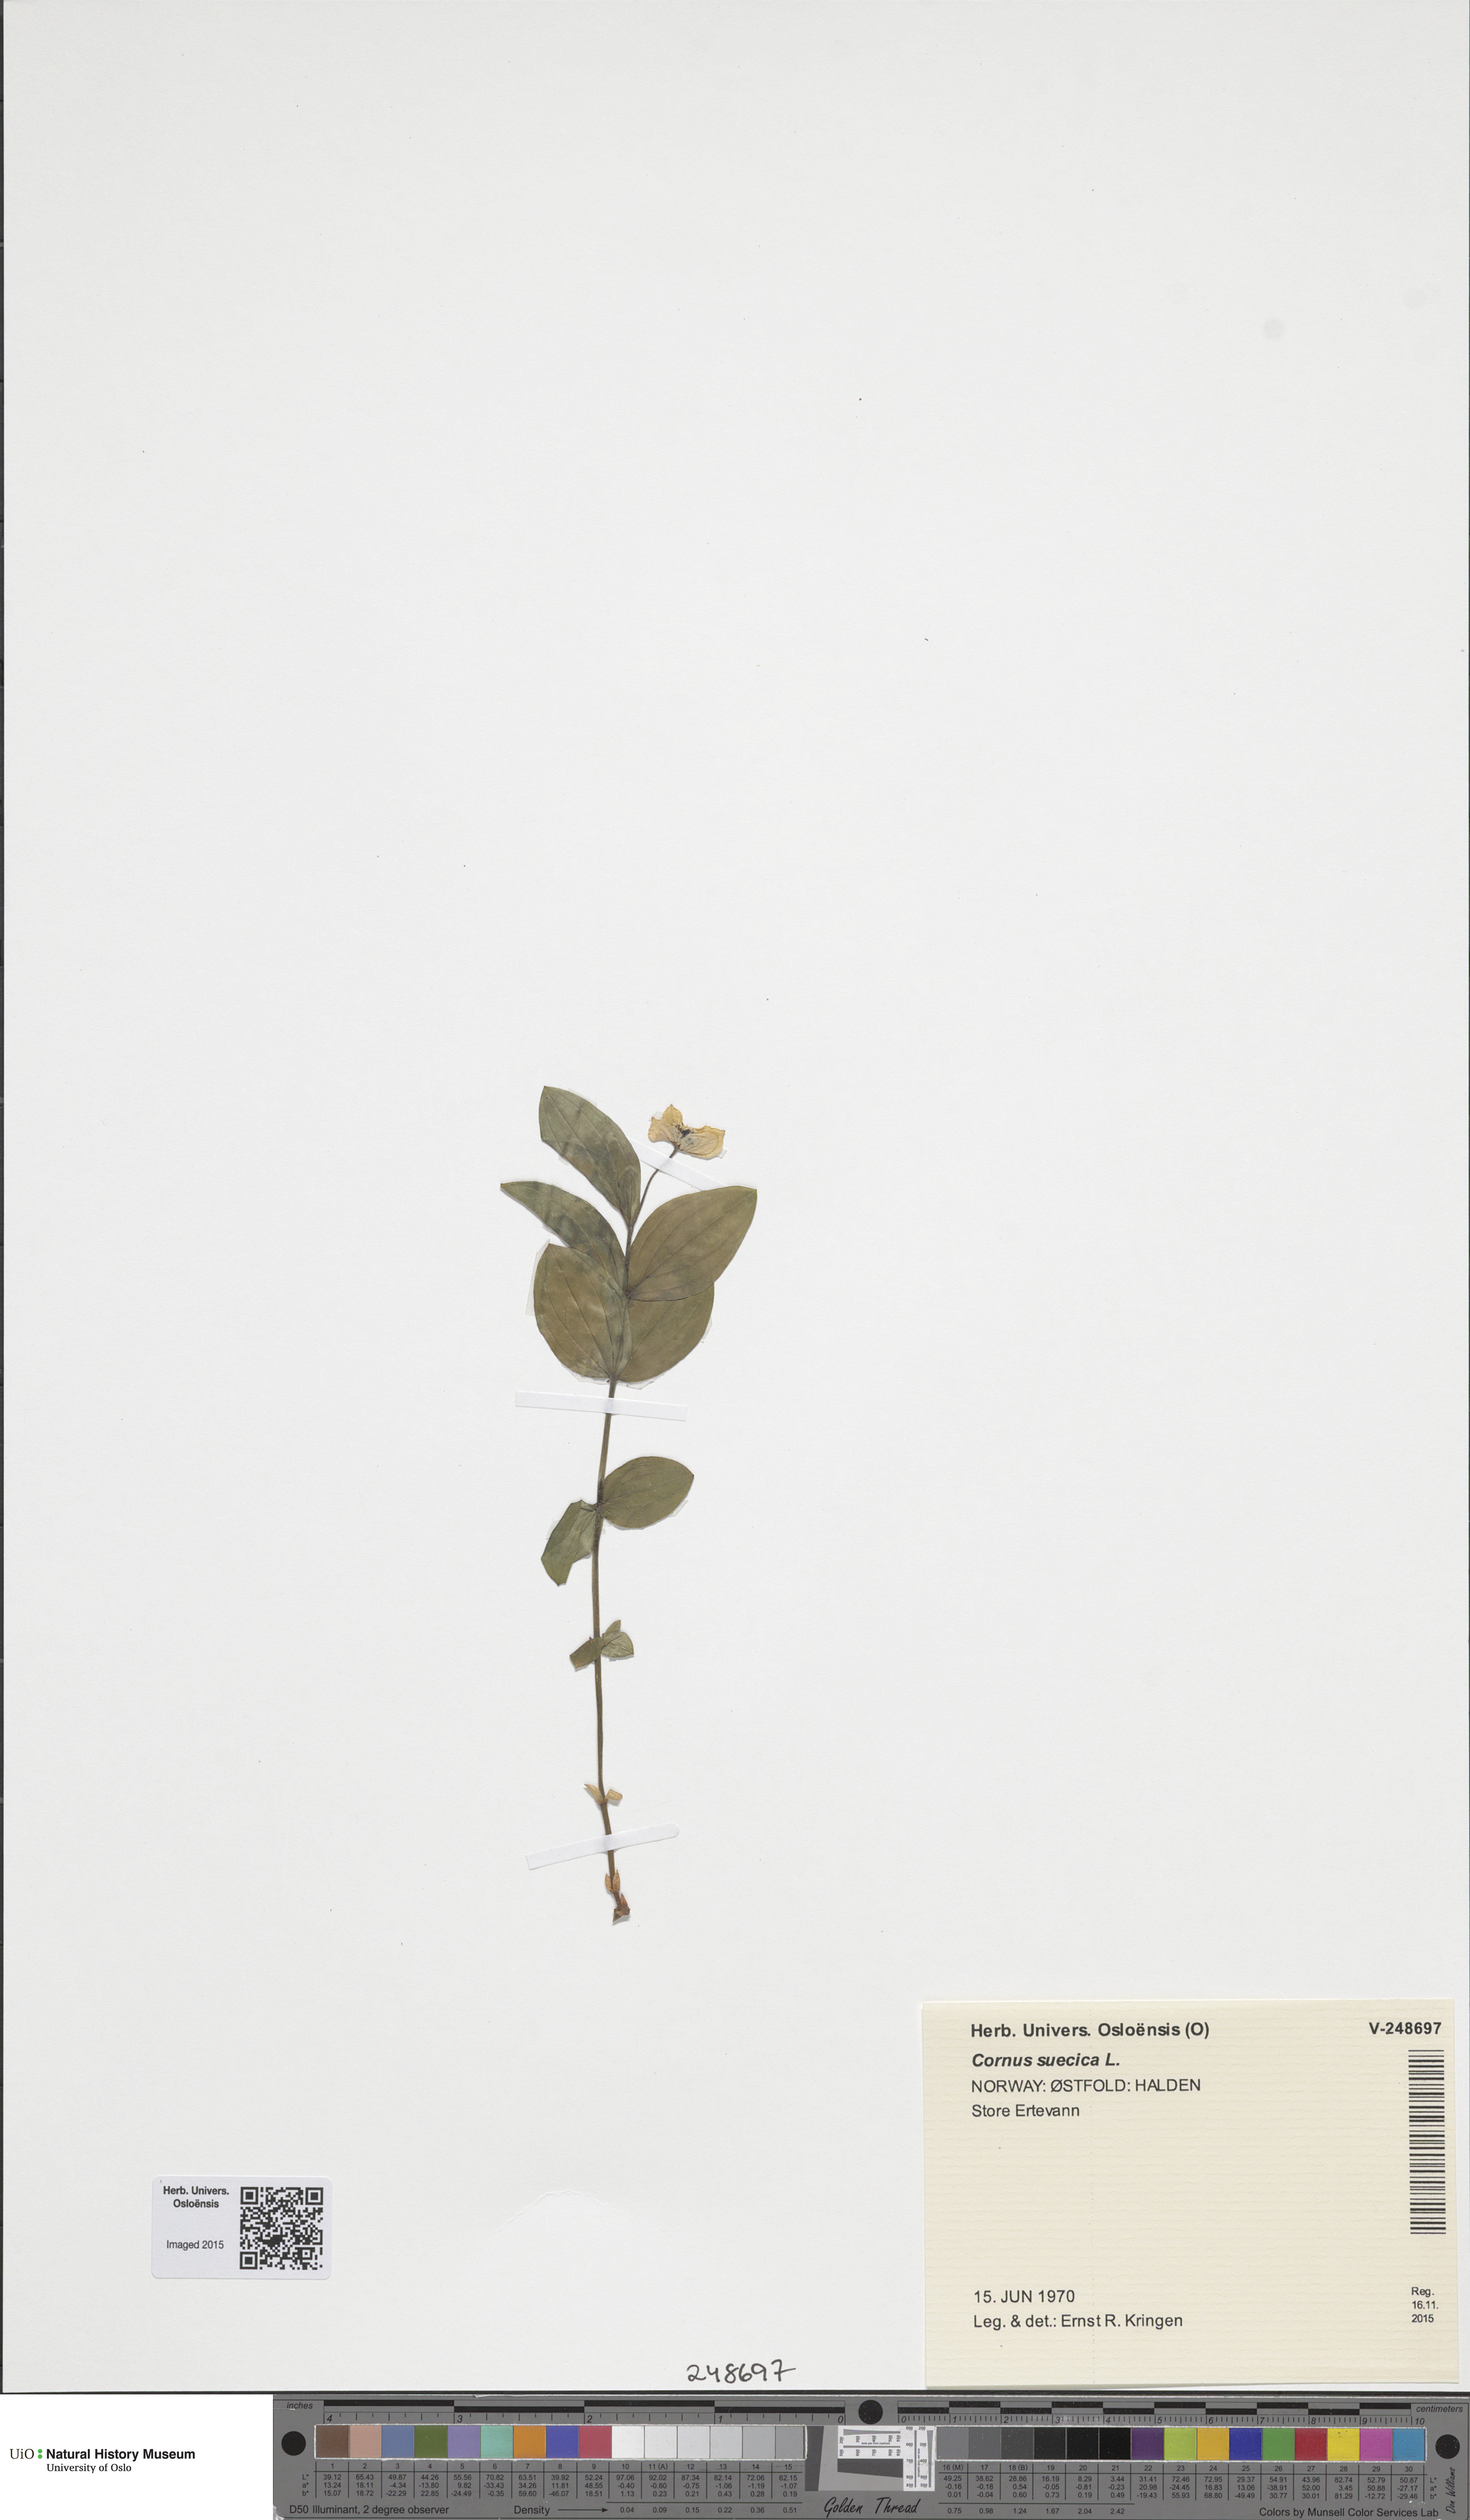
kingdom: Plantae
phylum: Tracheophyta
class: Magnoliopsida
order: Cornales
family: Cornaceae
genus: Cornus
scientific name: Cornus suecica
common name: Dwarf cornel
